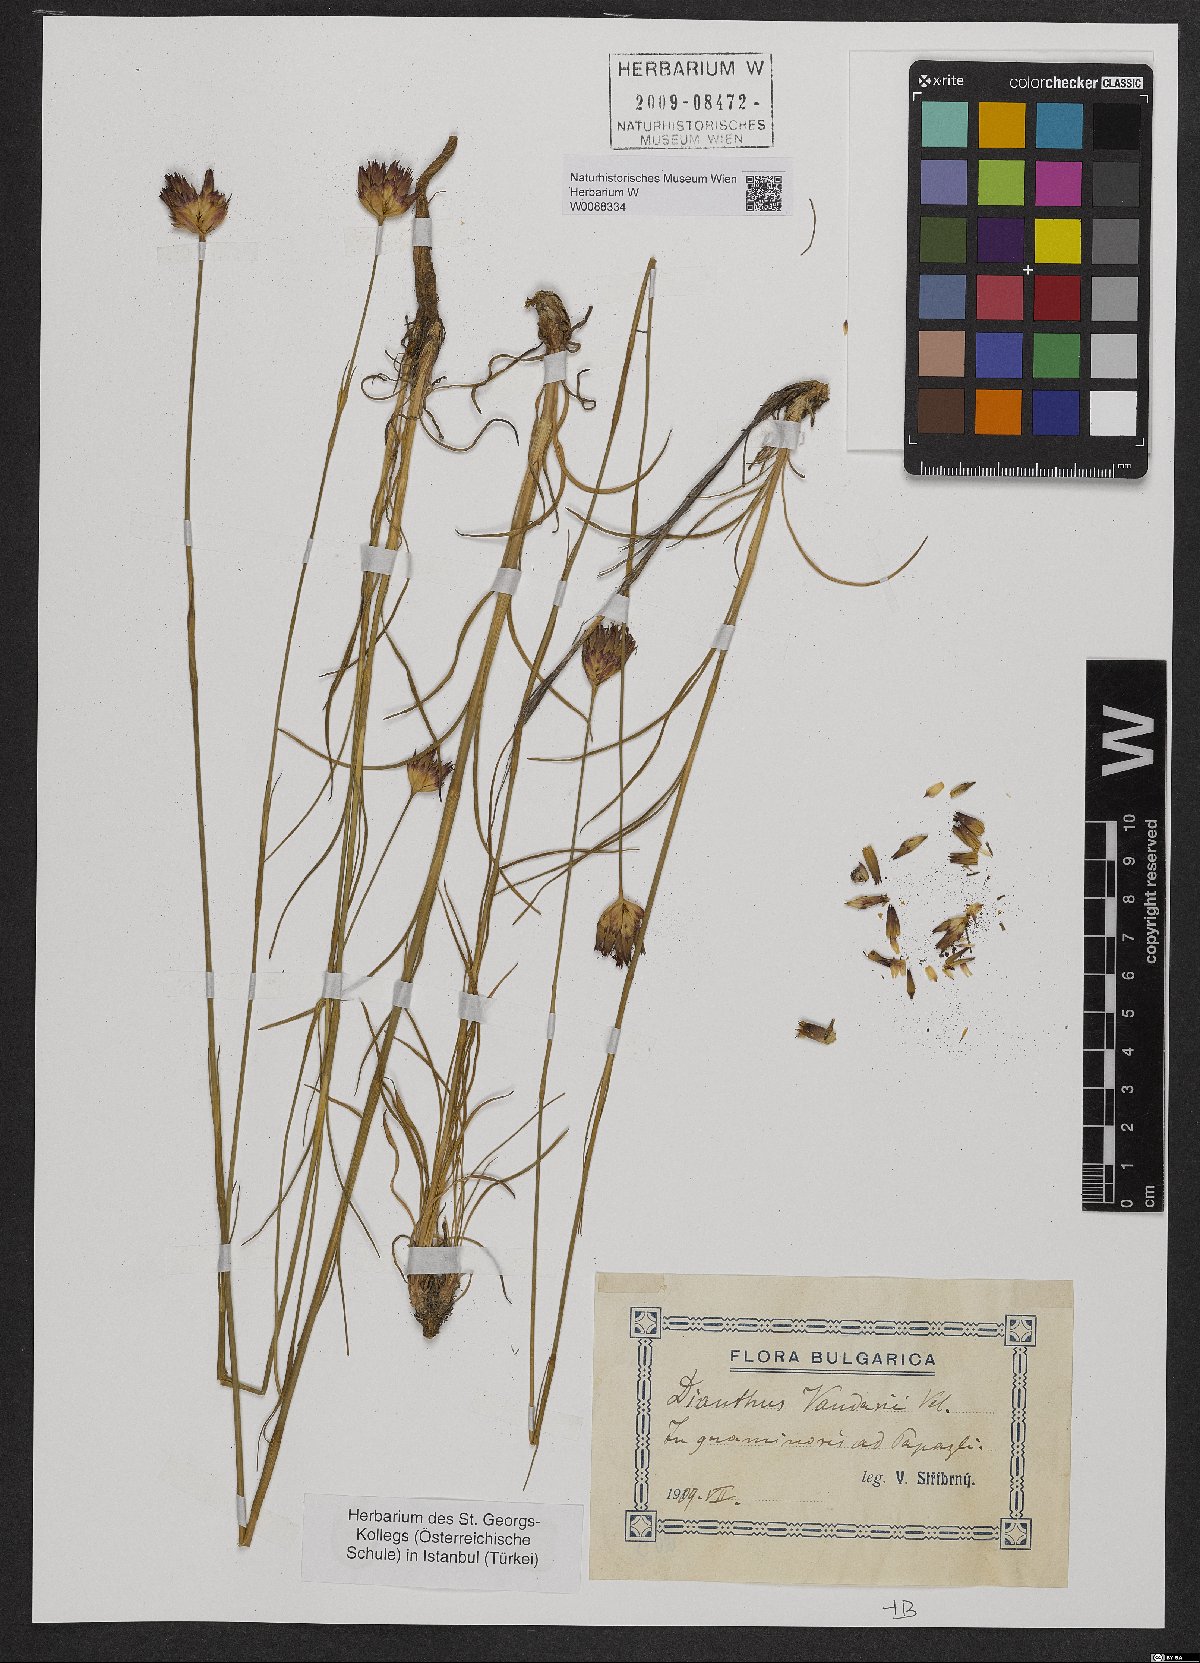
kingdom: Plantae
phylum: Tracheophyta
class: Magnoliopsida
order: Caryophyllales
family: Caryophyllaceae
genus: Dianthus
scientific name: Dianthus giganteus
